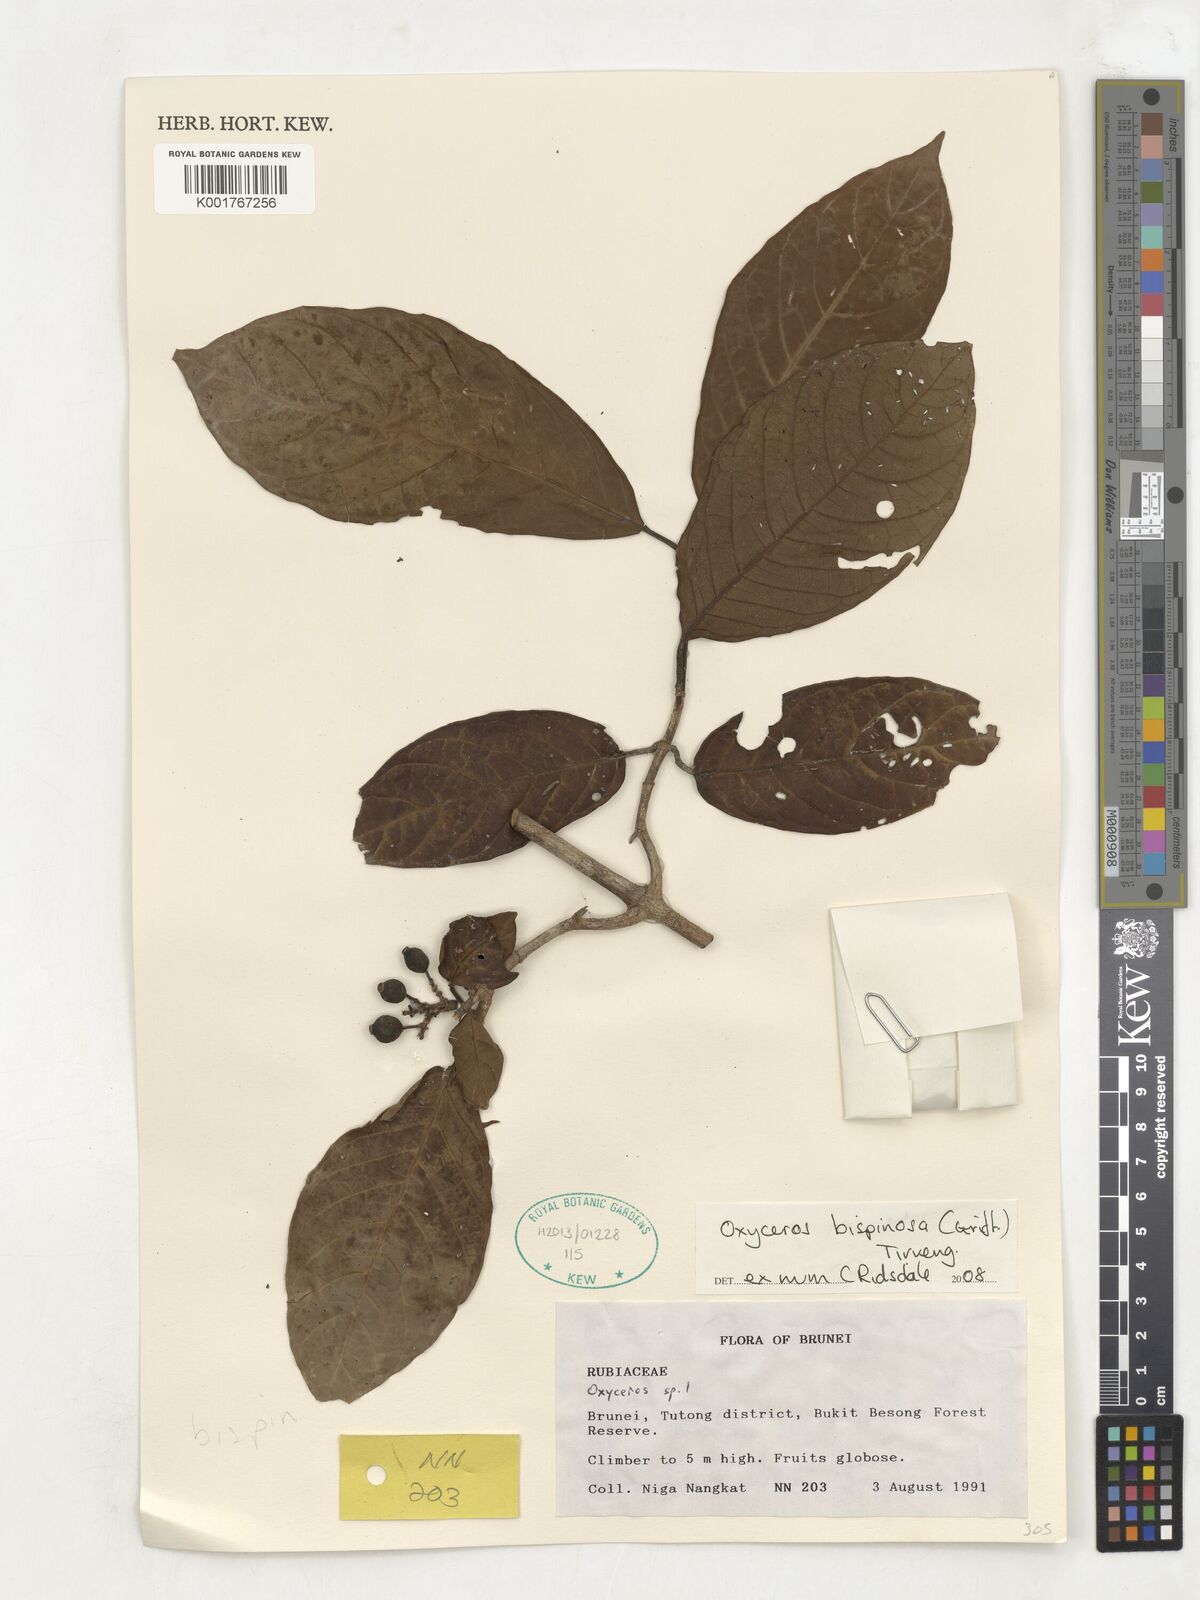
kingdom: Plantae
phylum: Tracheophyta
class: Magnoliopsida
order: Gentianales
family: Rubiaceae
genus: Oxyceros
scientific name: Oxyceros bispinosus
